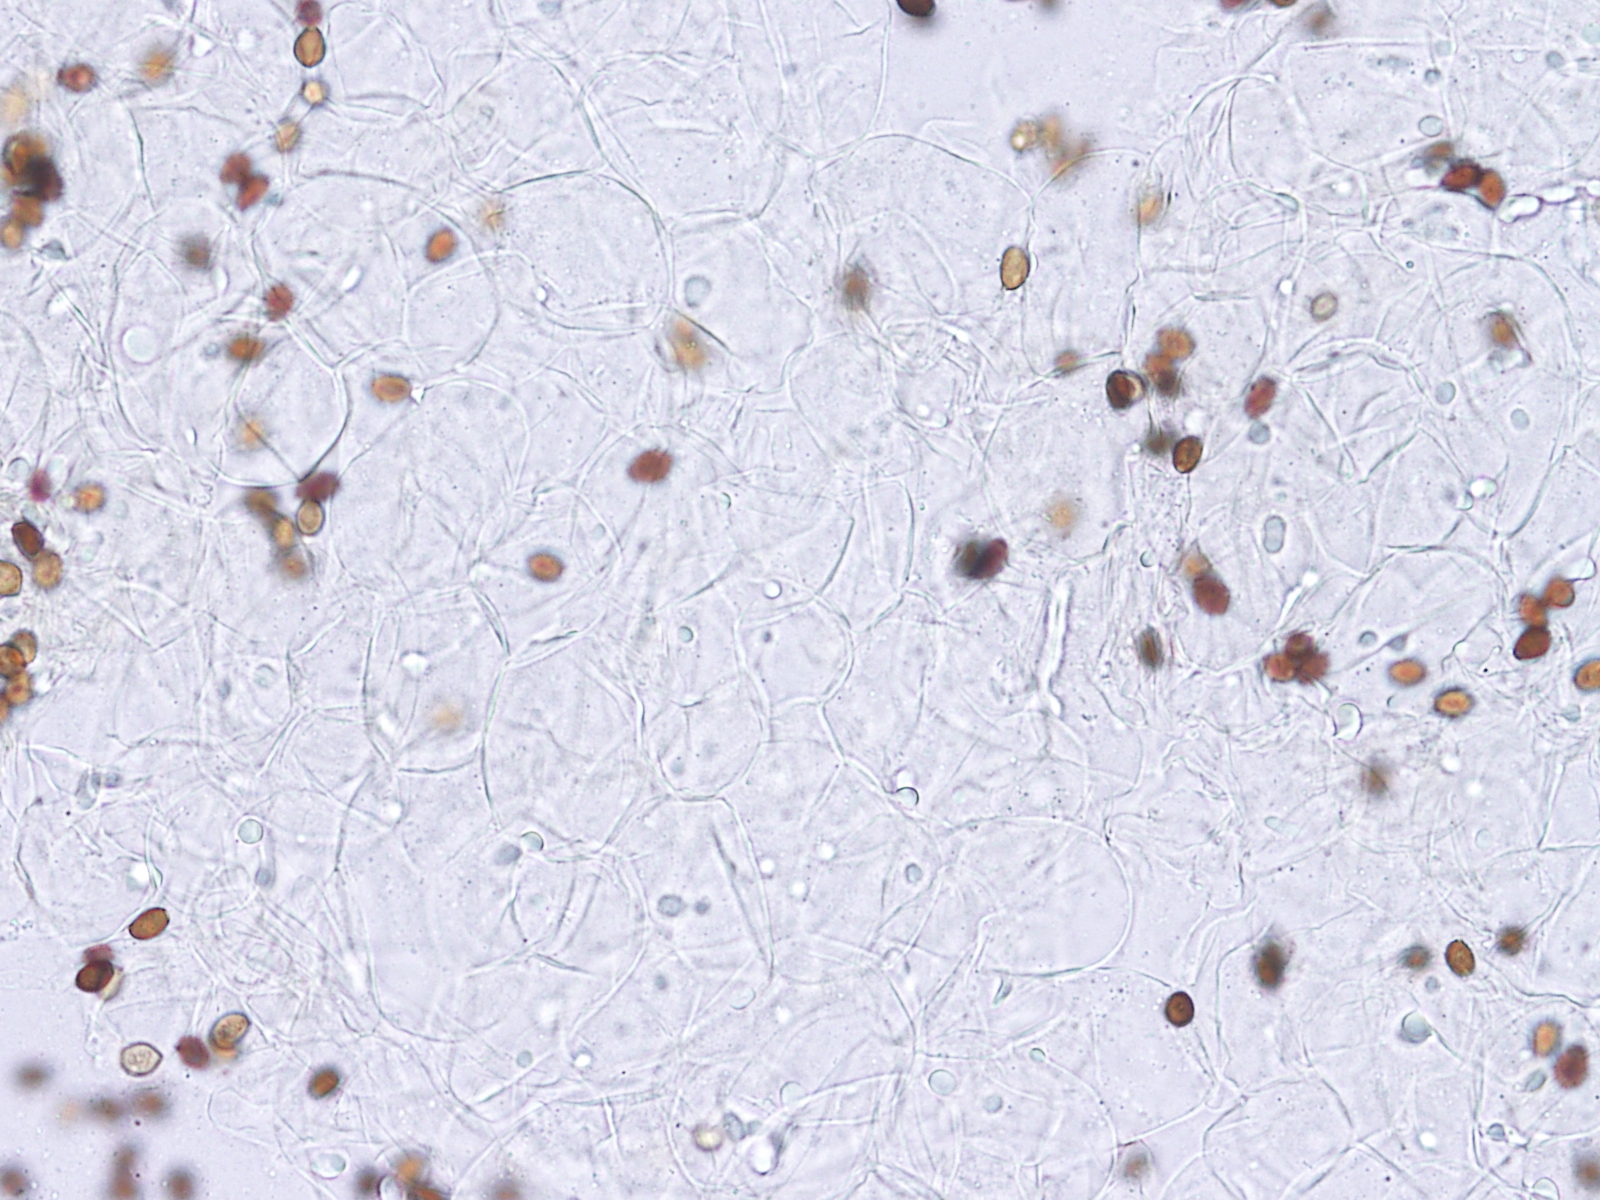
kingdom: Fungi
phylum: Basidiomycota
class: Agaricomycetes
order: Agaricales
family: Psathyrellaceae
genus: Coprinellus
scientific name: Coprinellus micaceus
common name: glimmer-blækhat
